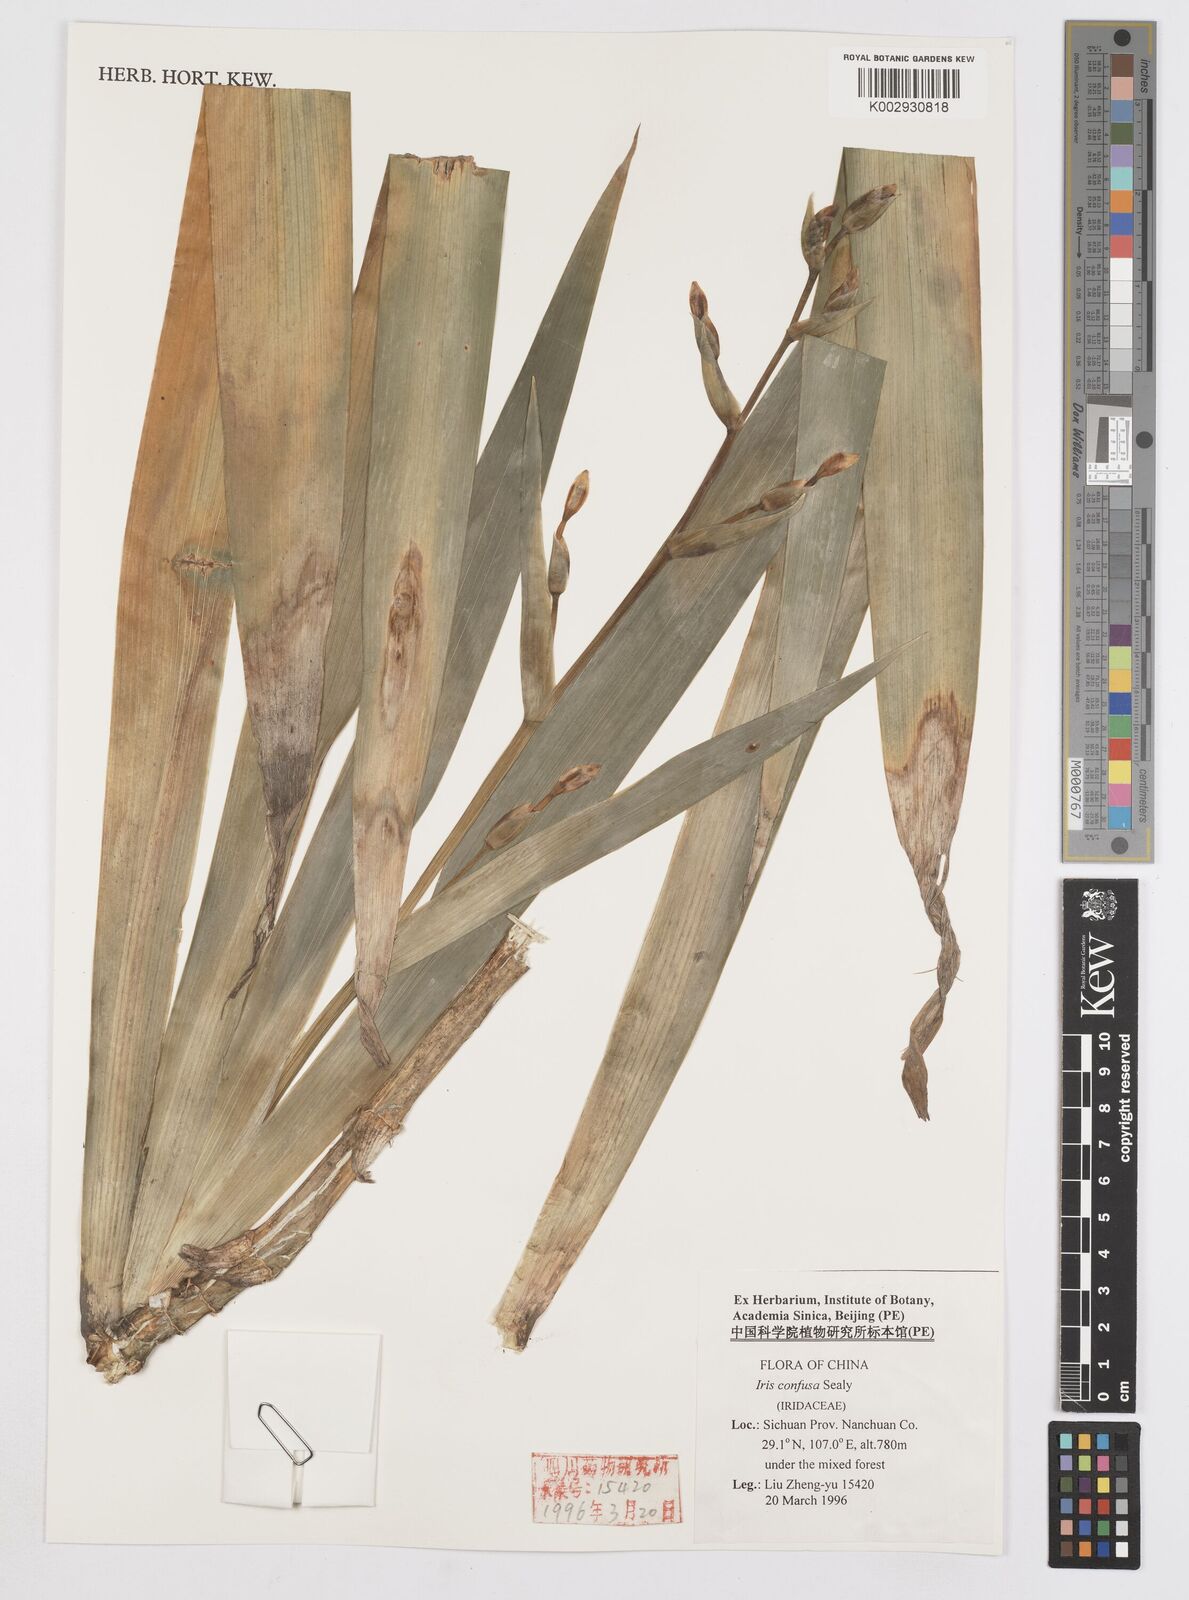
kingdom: Plantae
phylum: Tracheophyta
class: Liliopsida
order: Asparagales
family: Iridaceae
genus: Iris
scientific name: Iris
